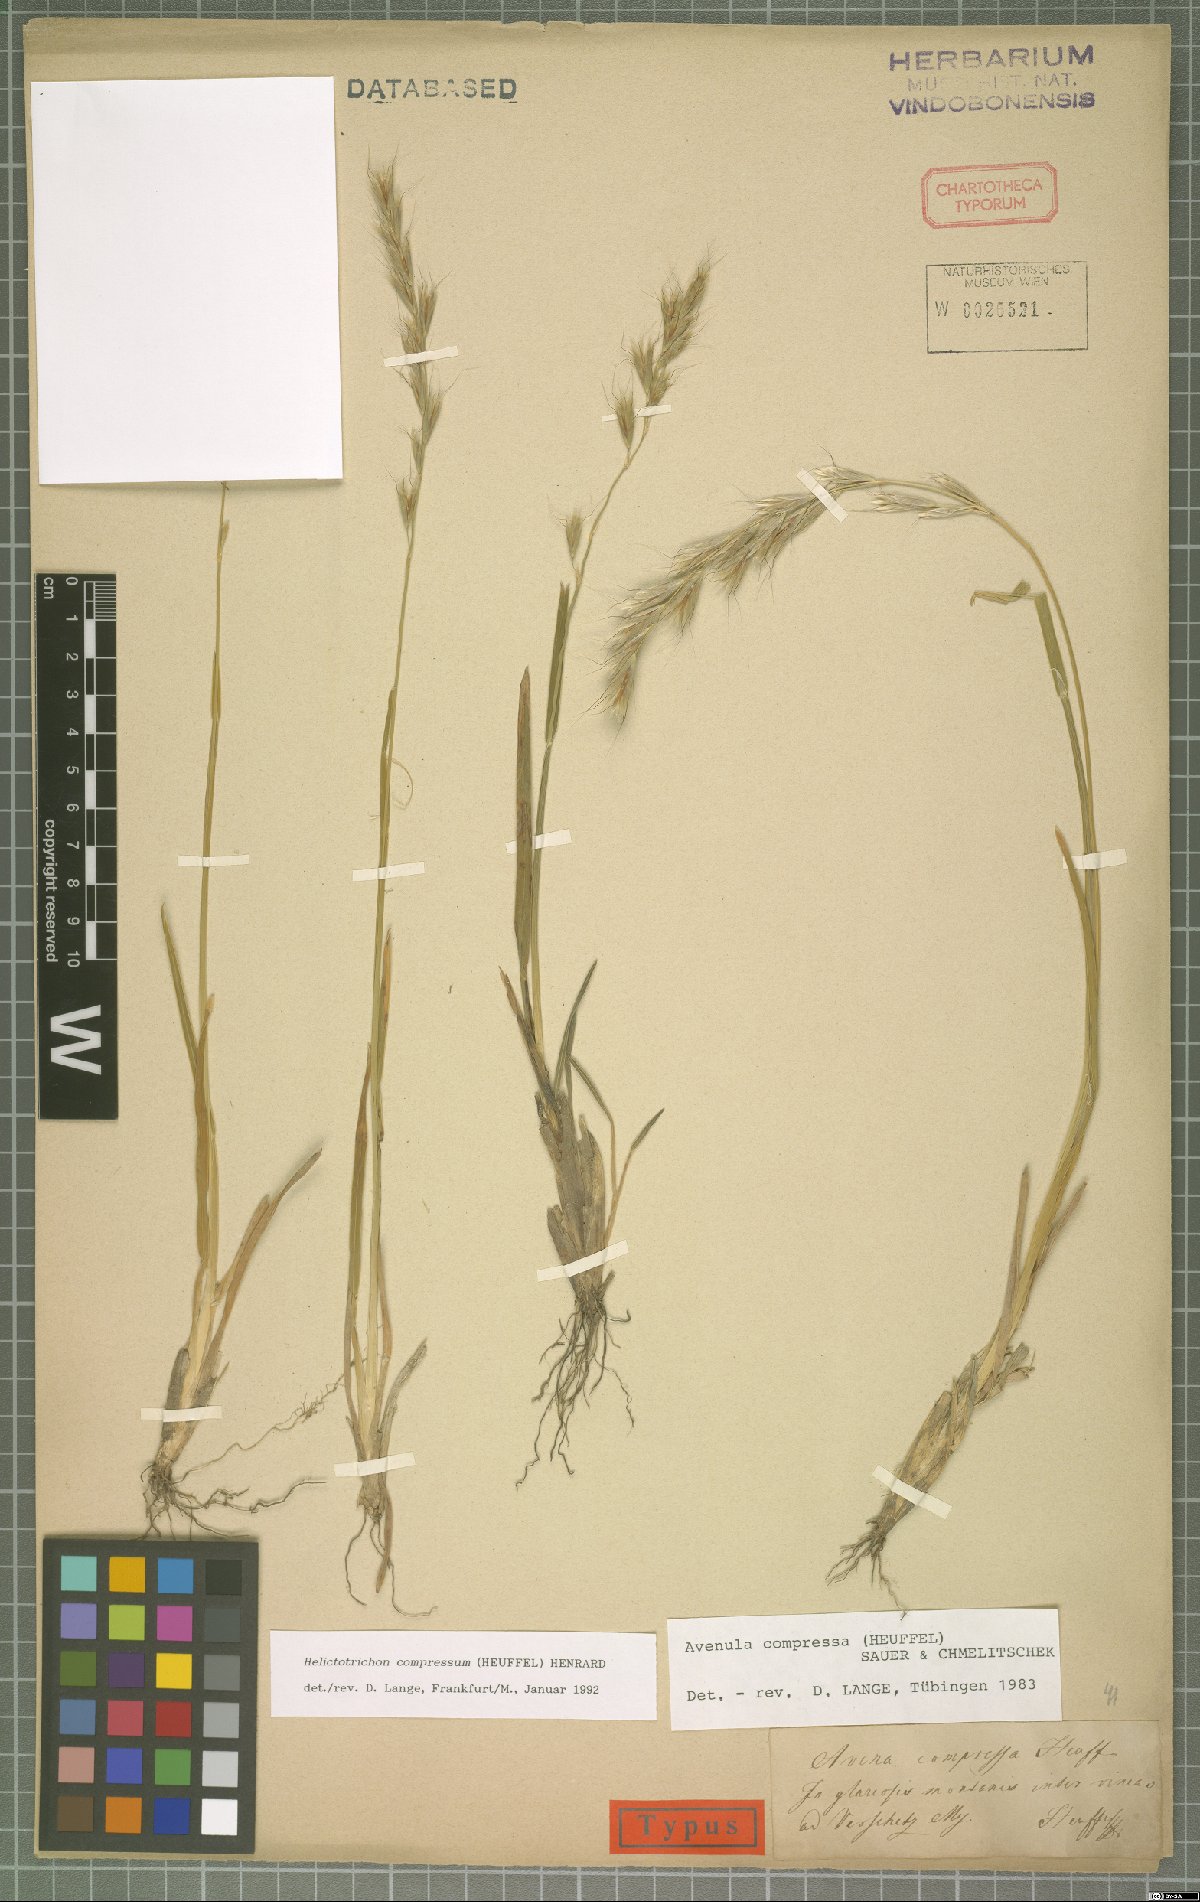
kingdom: Plantae
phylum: Tracheophyta
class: Liliopsida
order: Poales
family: Poaceae
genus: Helictochloa
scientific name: Helictochloa compressa
